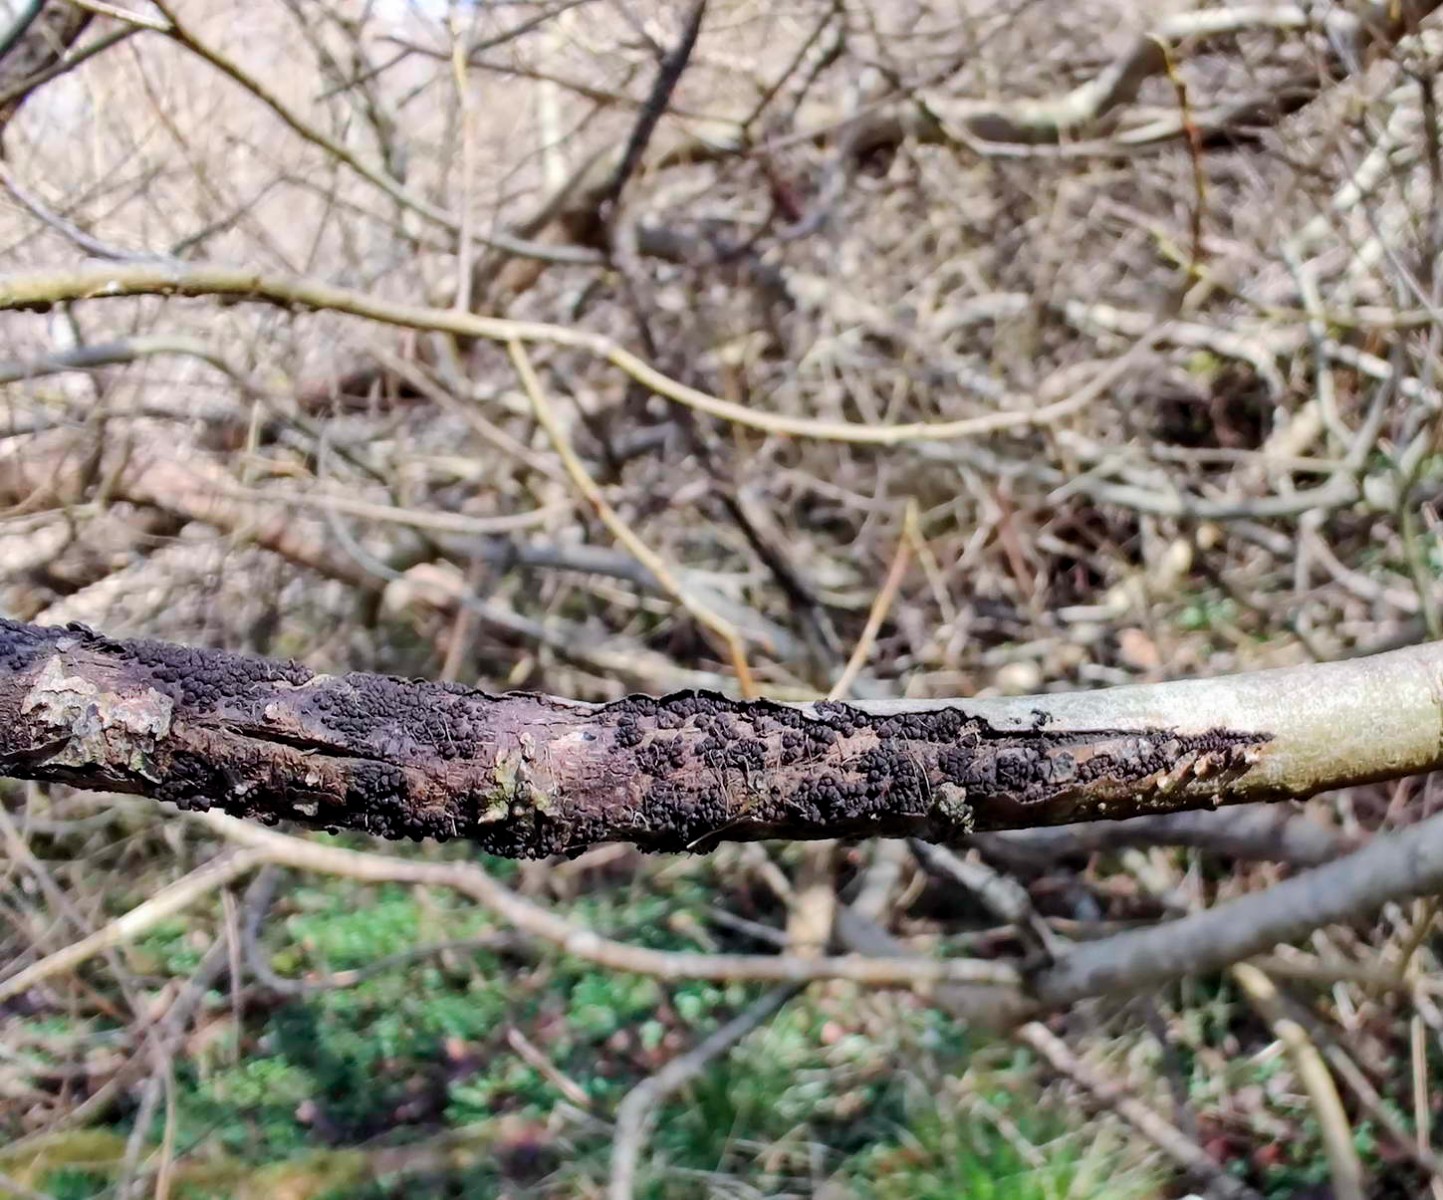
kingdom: Fungi
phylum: Ascomycota
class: Leotiomycetes
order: Helotiales
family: Godroniaceae
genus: Godronia
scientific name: Godronia fuliginosa
